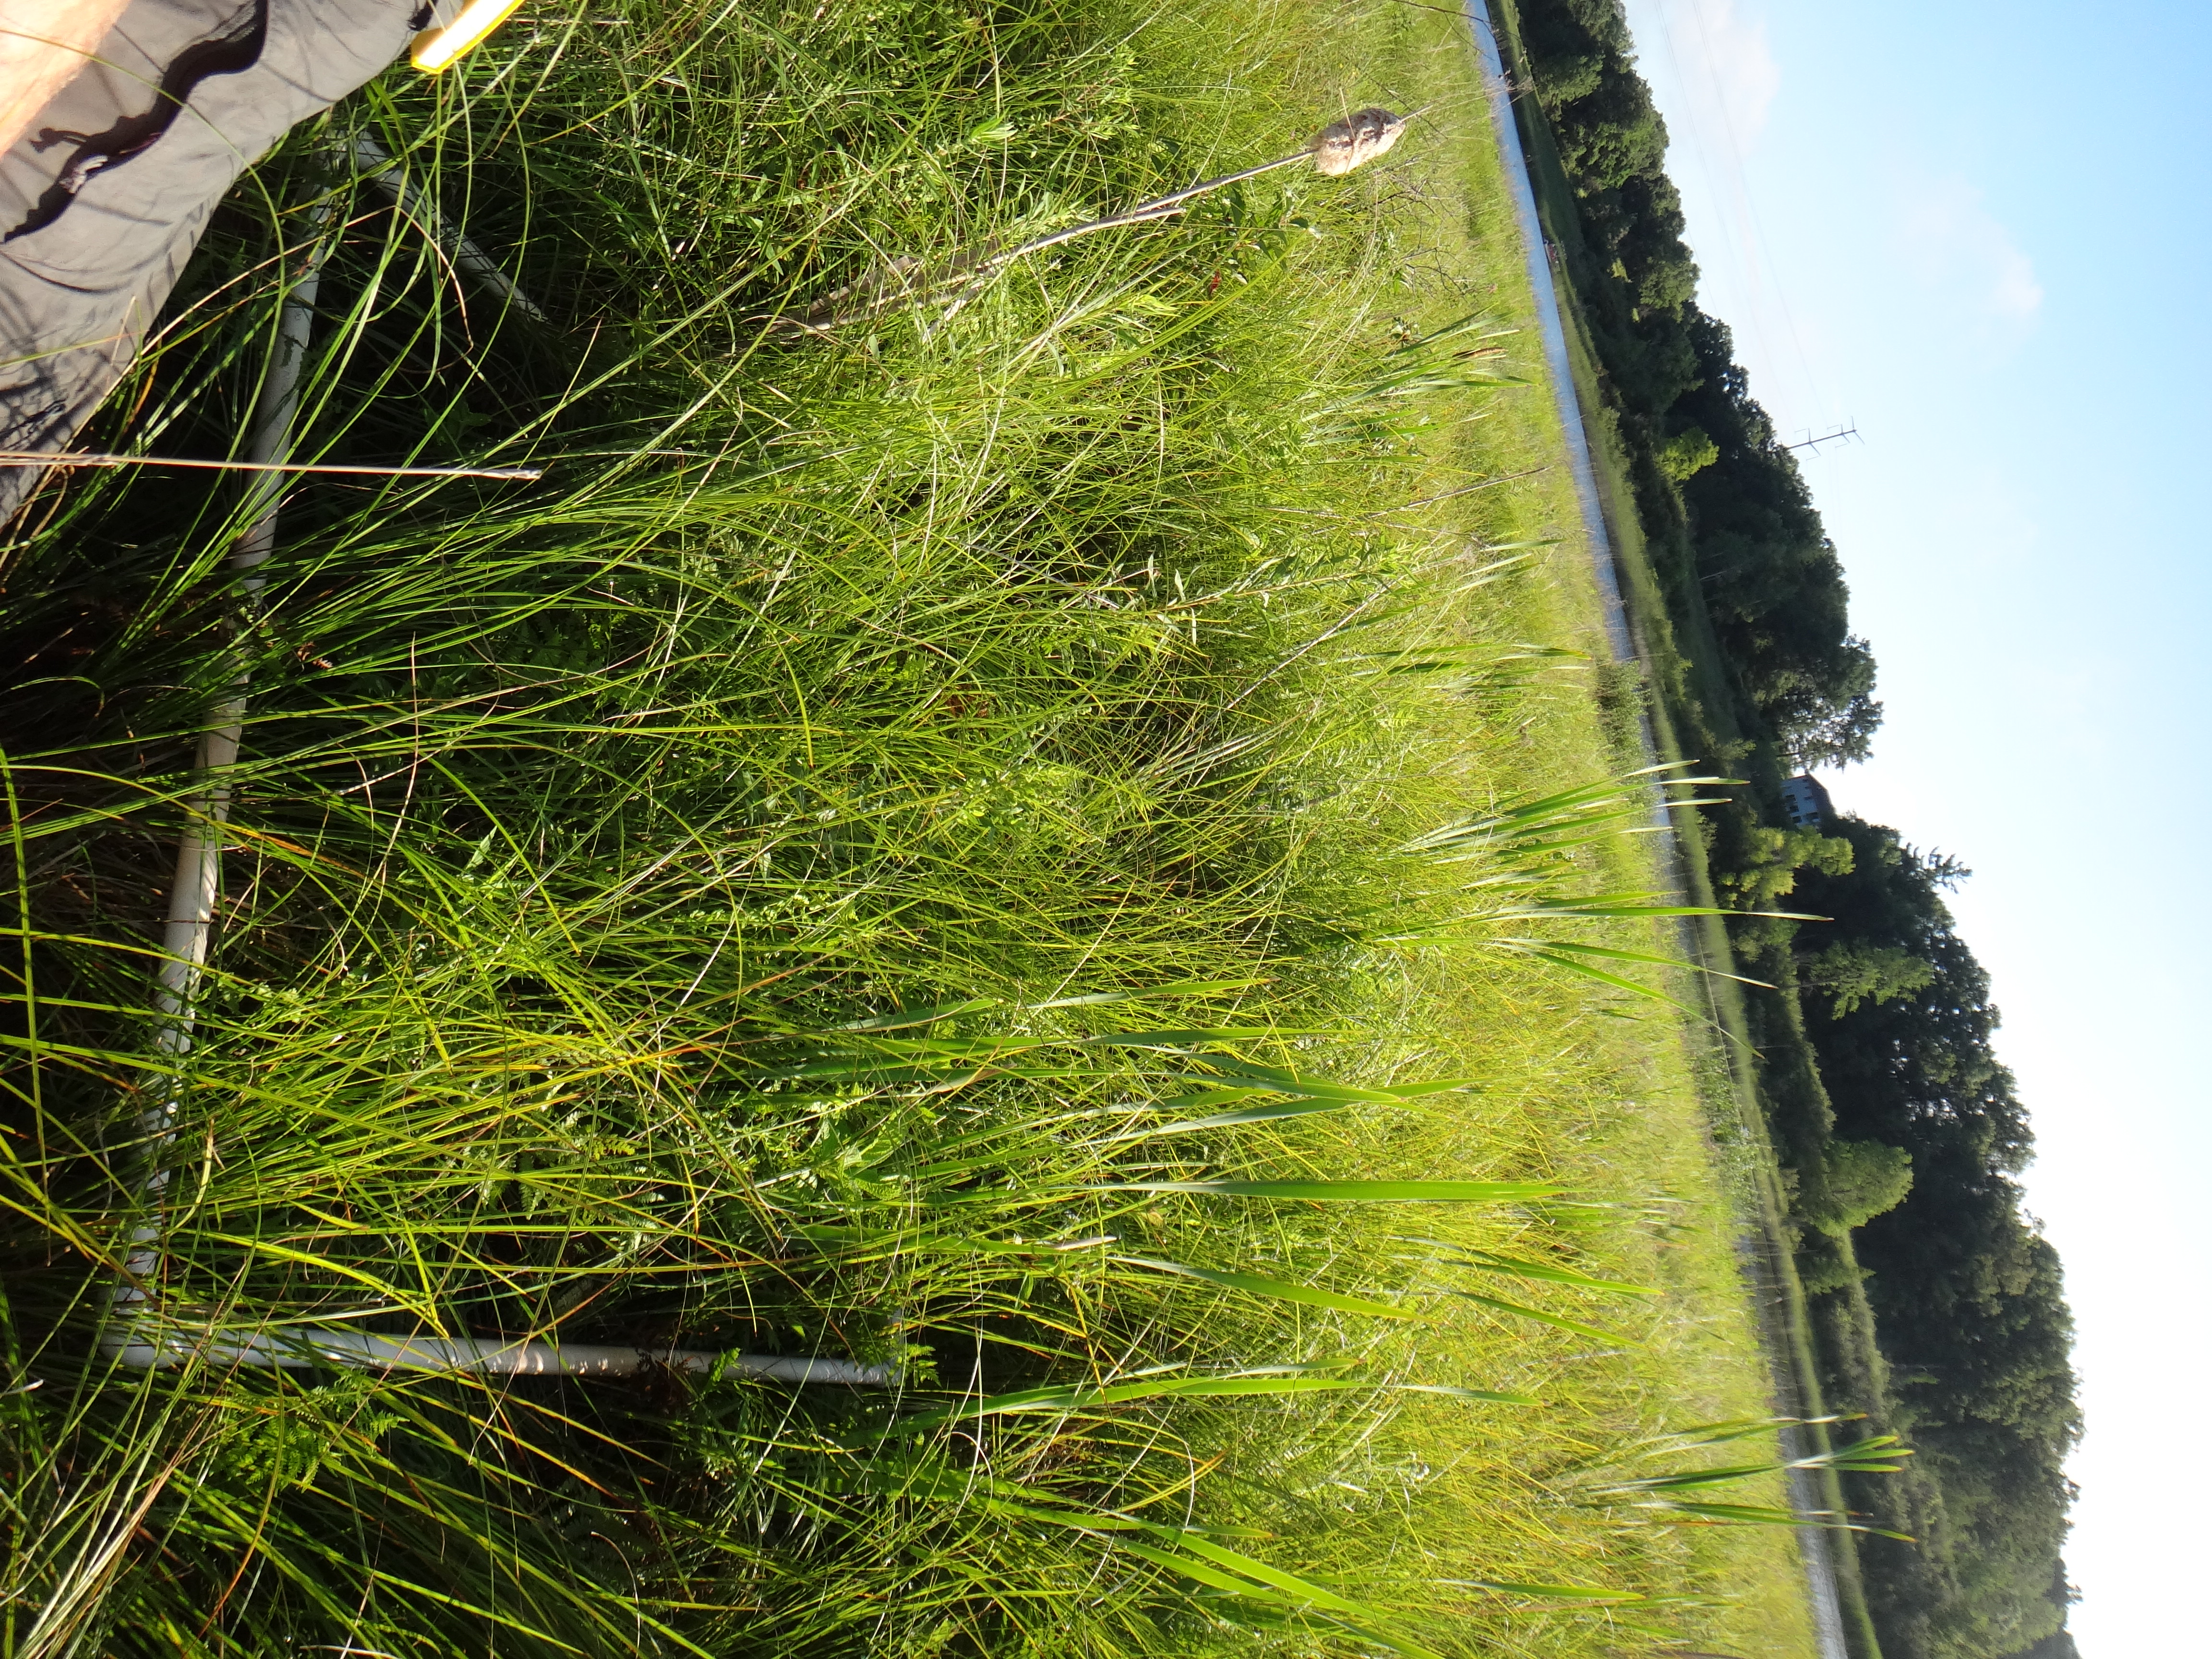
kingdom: Plantae
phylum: Tracheophyta
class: Magnoliopsida
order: Lamiales
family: Lamiaceae
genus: Lycopus
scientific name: Lycopus americanus
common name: American bugleweed
